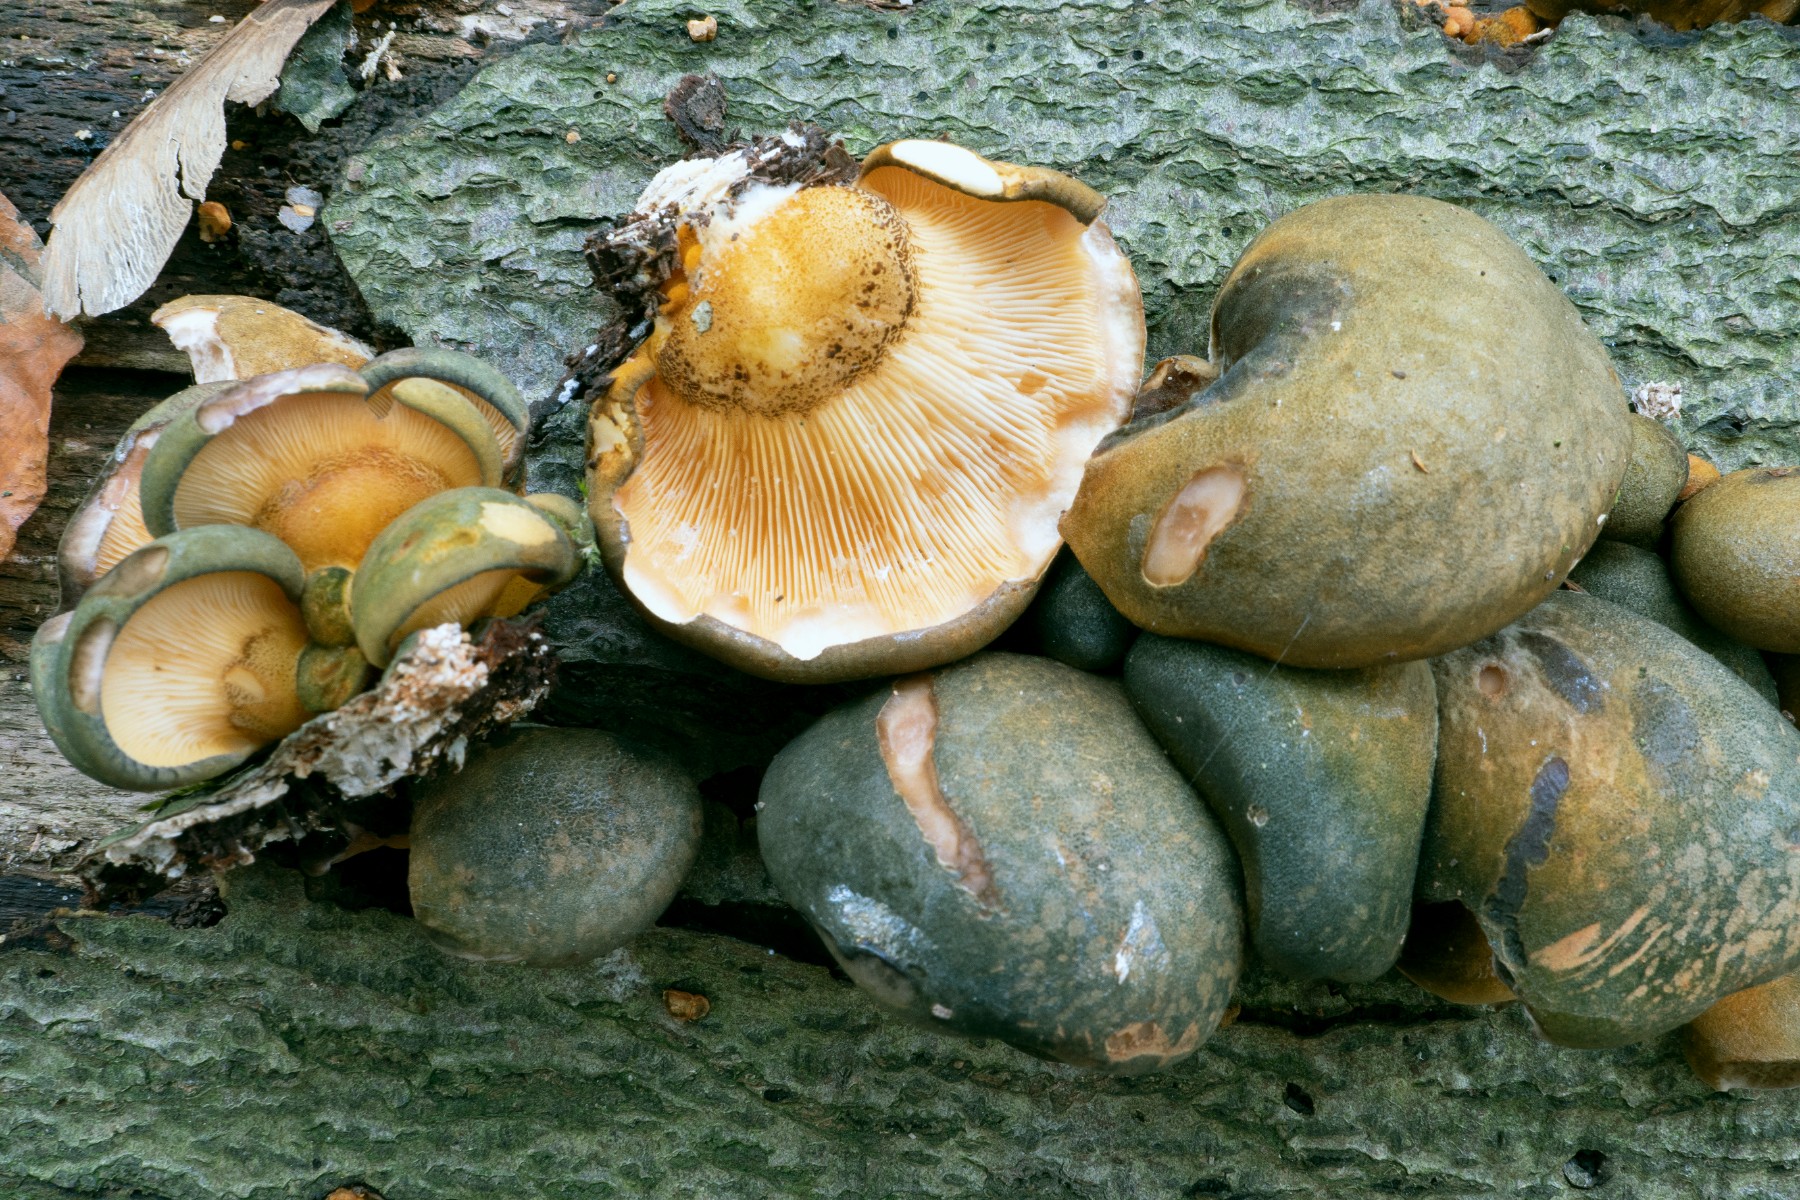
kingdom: Fungi
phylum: Basidiomycota
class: Agaricomycetes
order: Agaricales
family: Sarcomyxaceae
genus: Sarcomyxa
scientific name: Sarcomyxa serotina
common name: gummihat
